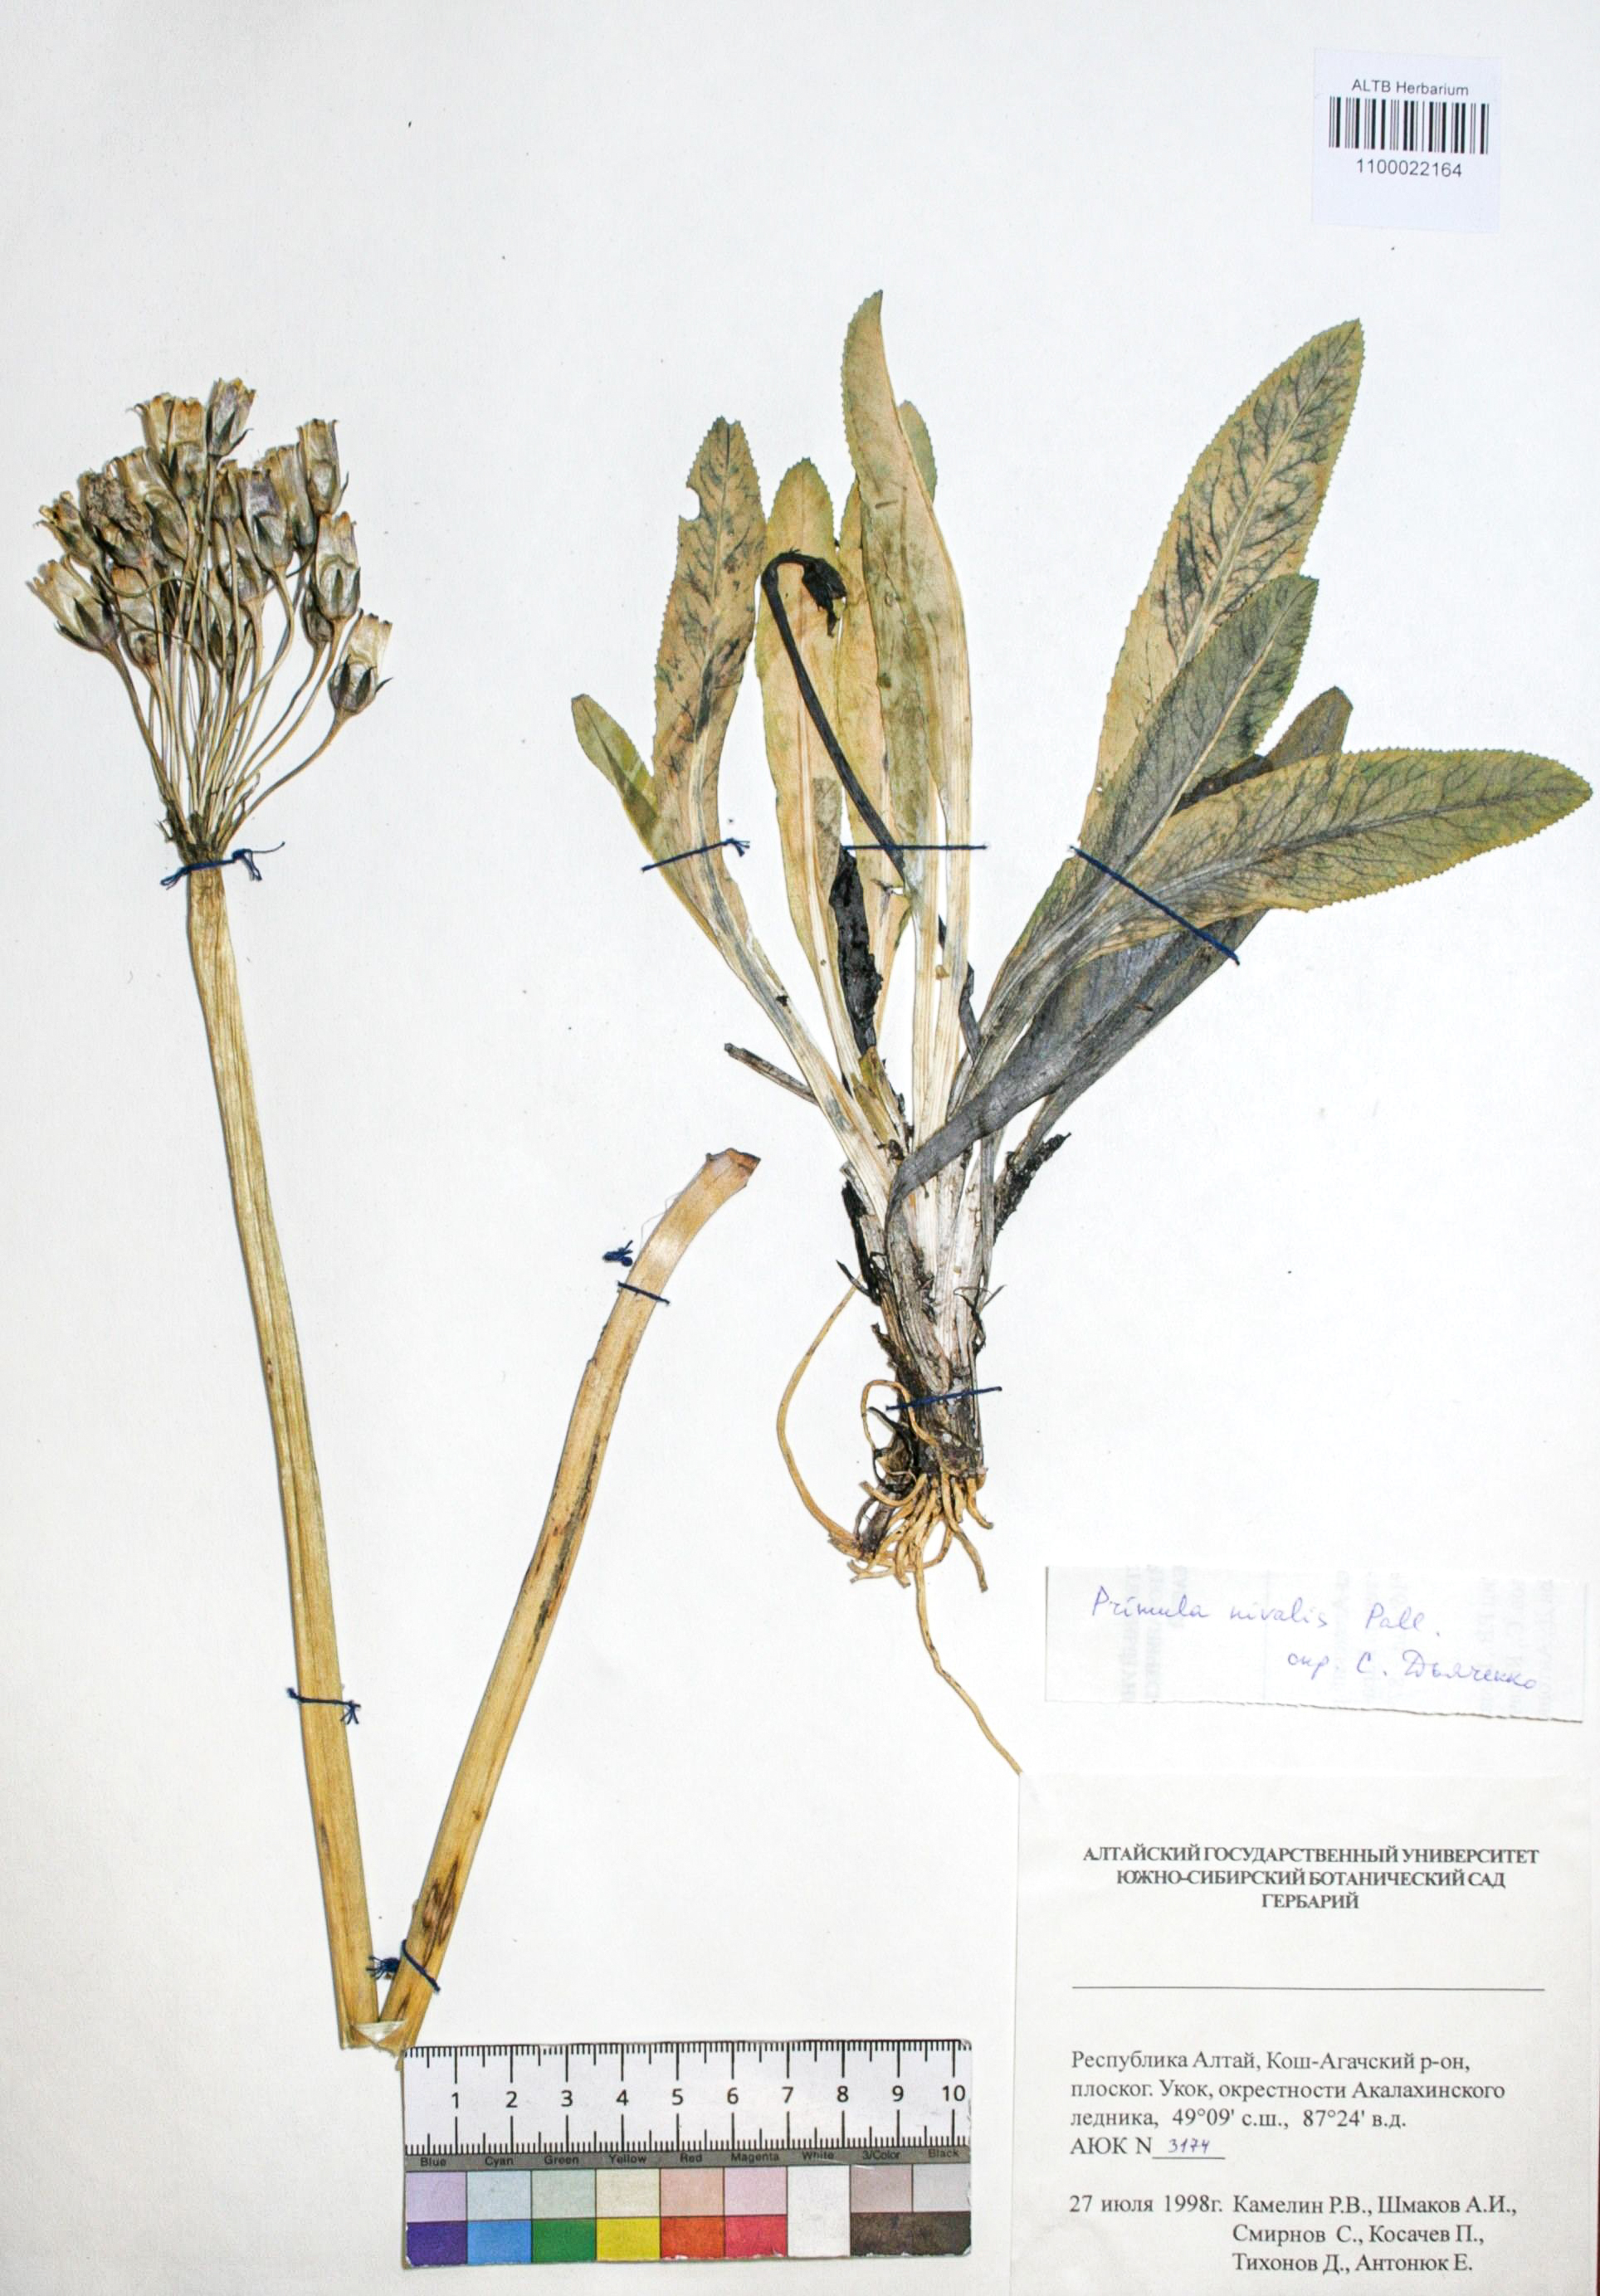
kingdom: Plantae
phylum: Tracheophyta
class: Magnoliopsida
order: Ericales
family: Primulaceae
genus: Primula
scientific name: Primula nivalis
